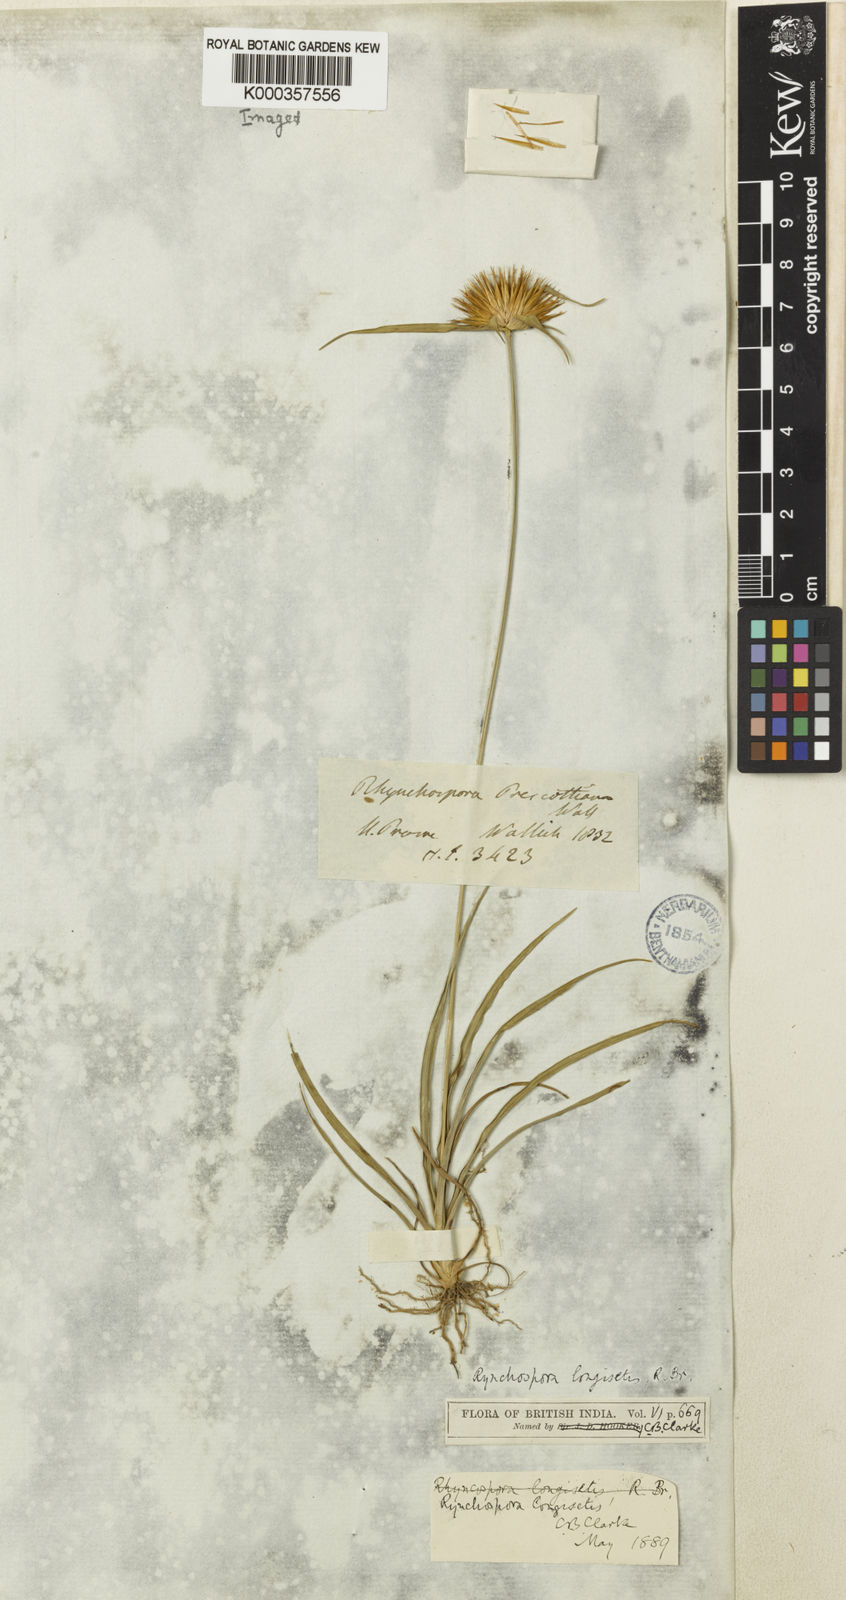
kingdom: Plantae
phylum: Tracheophyta
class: Liliopsida
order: Poales
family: Cyperaceae
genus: Rhynchospora
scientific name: Rhynchospora longisetis
